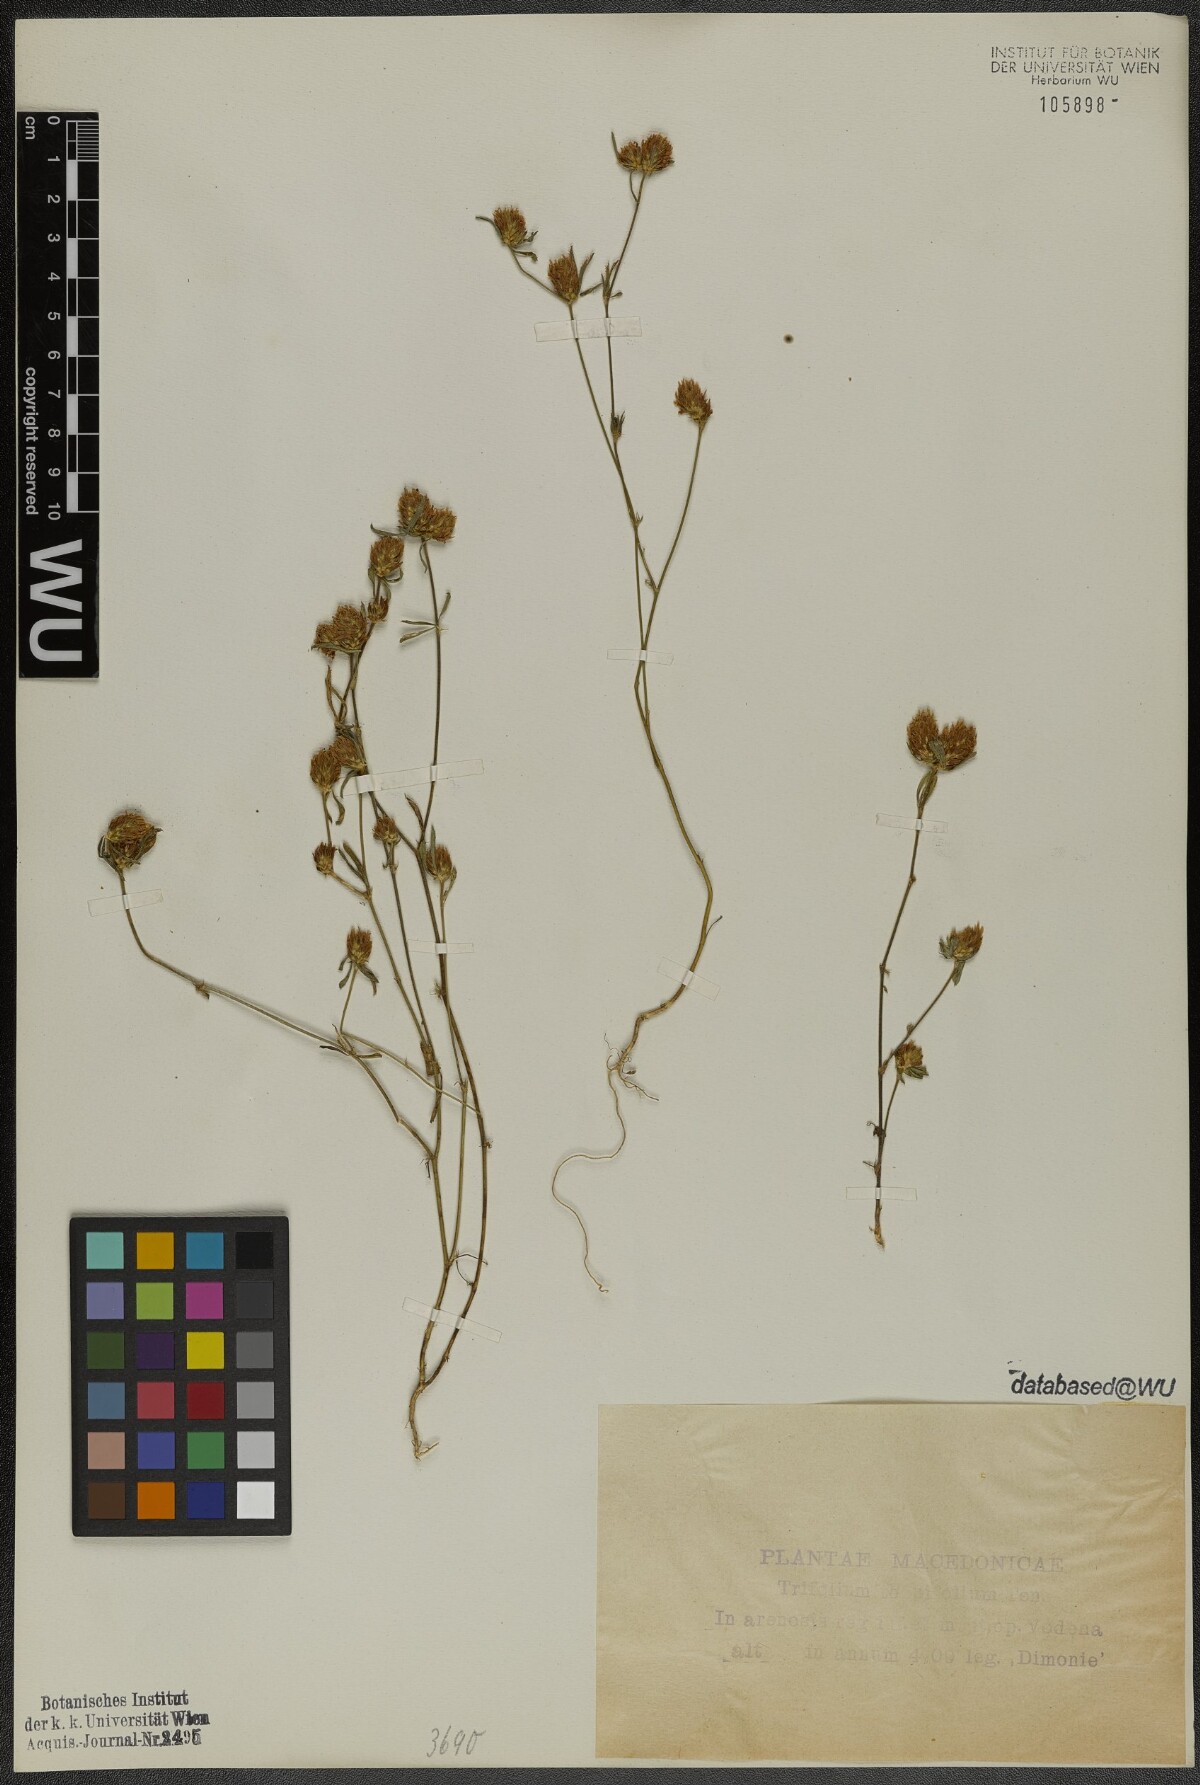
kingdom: Plantae
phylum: Tracheophyta
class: Magnoliopsida
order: Fabales
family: Fabaceae
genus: Trifolium
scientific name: Trifolium tenuifolium
